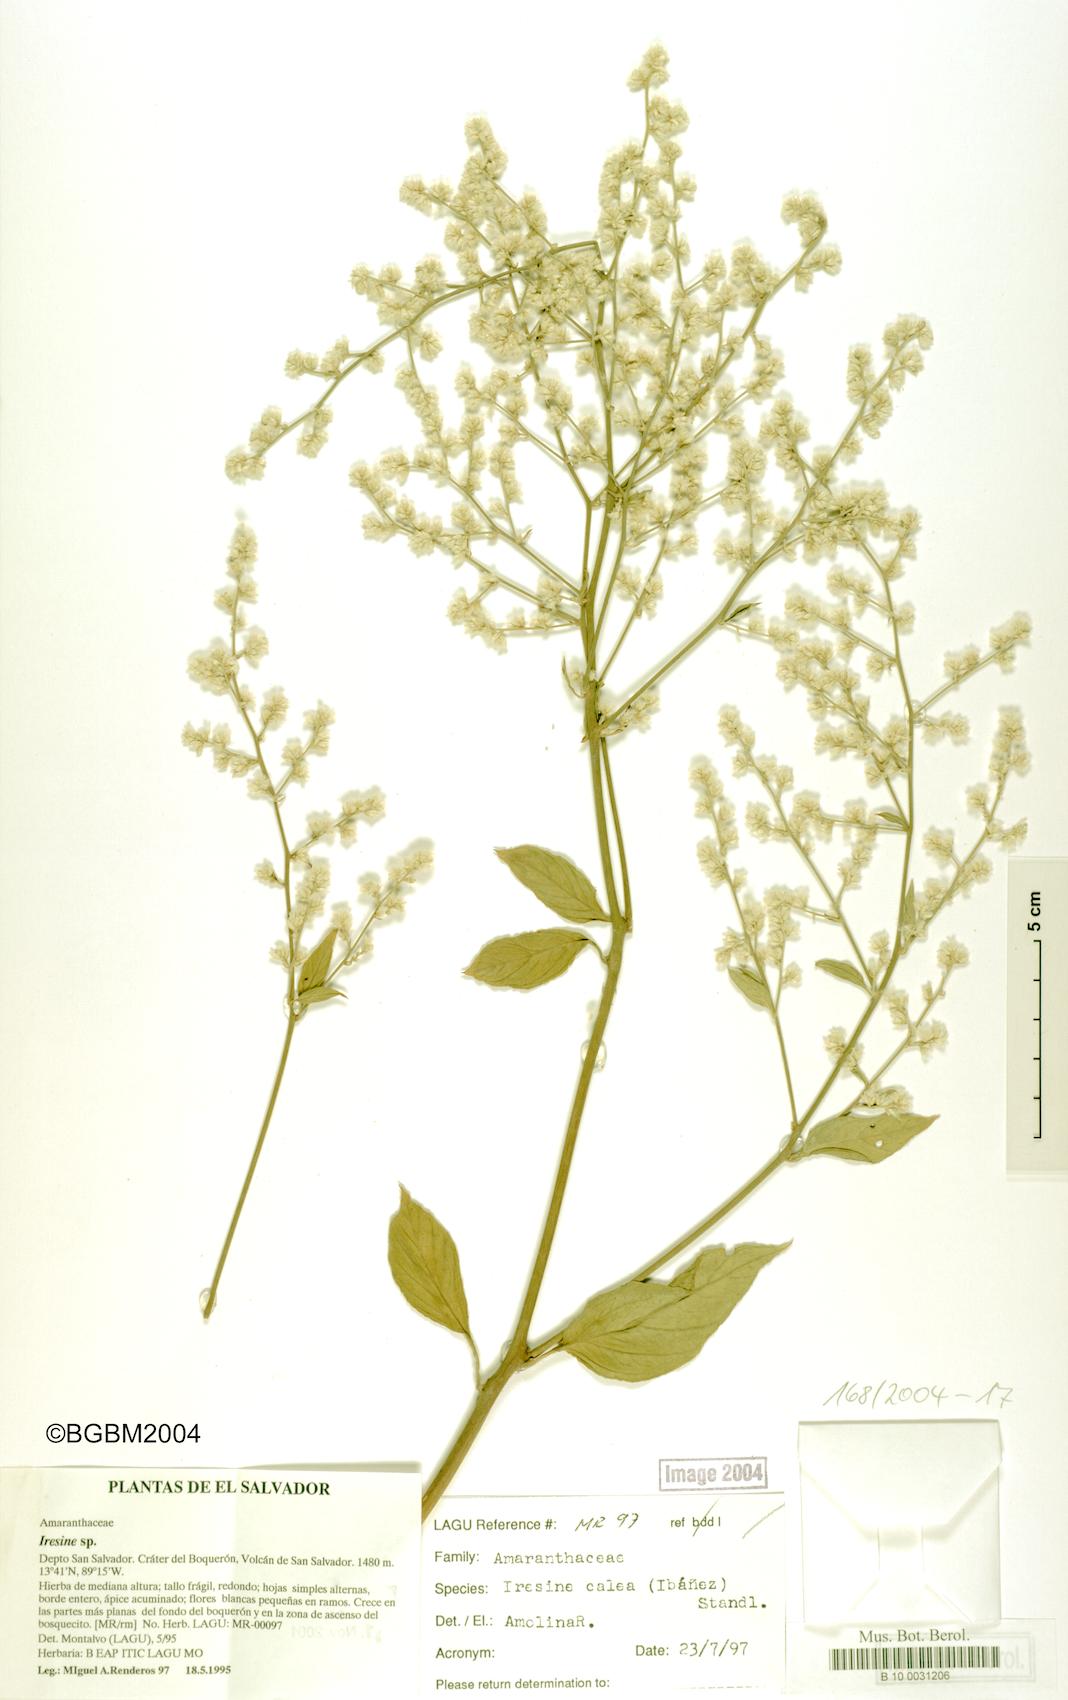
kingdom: Plantae
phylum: Tracheophyta
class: Magnoliopsida
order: Caryophyllales
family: Amaranthaceae
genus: Iresine
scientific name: Iresine latifolia
